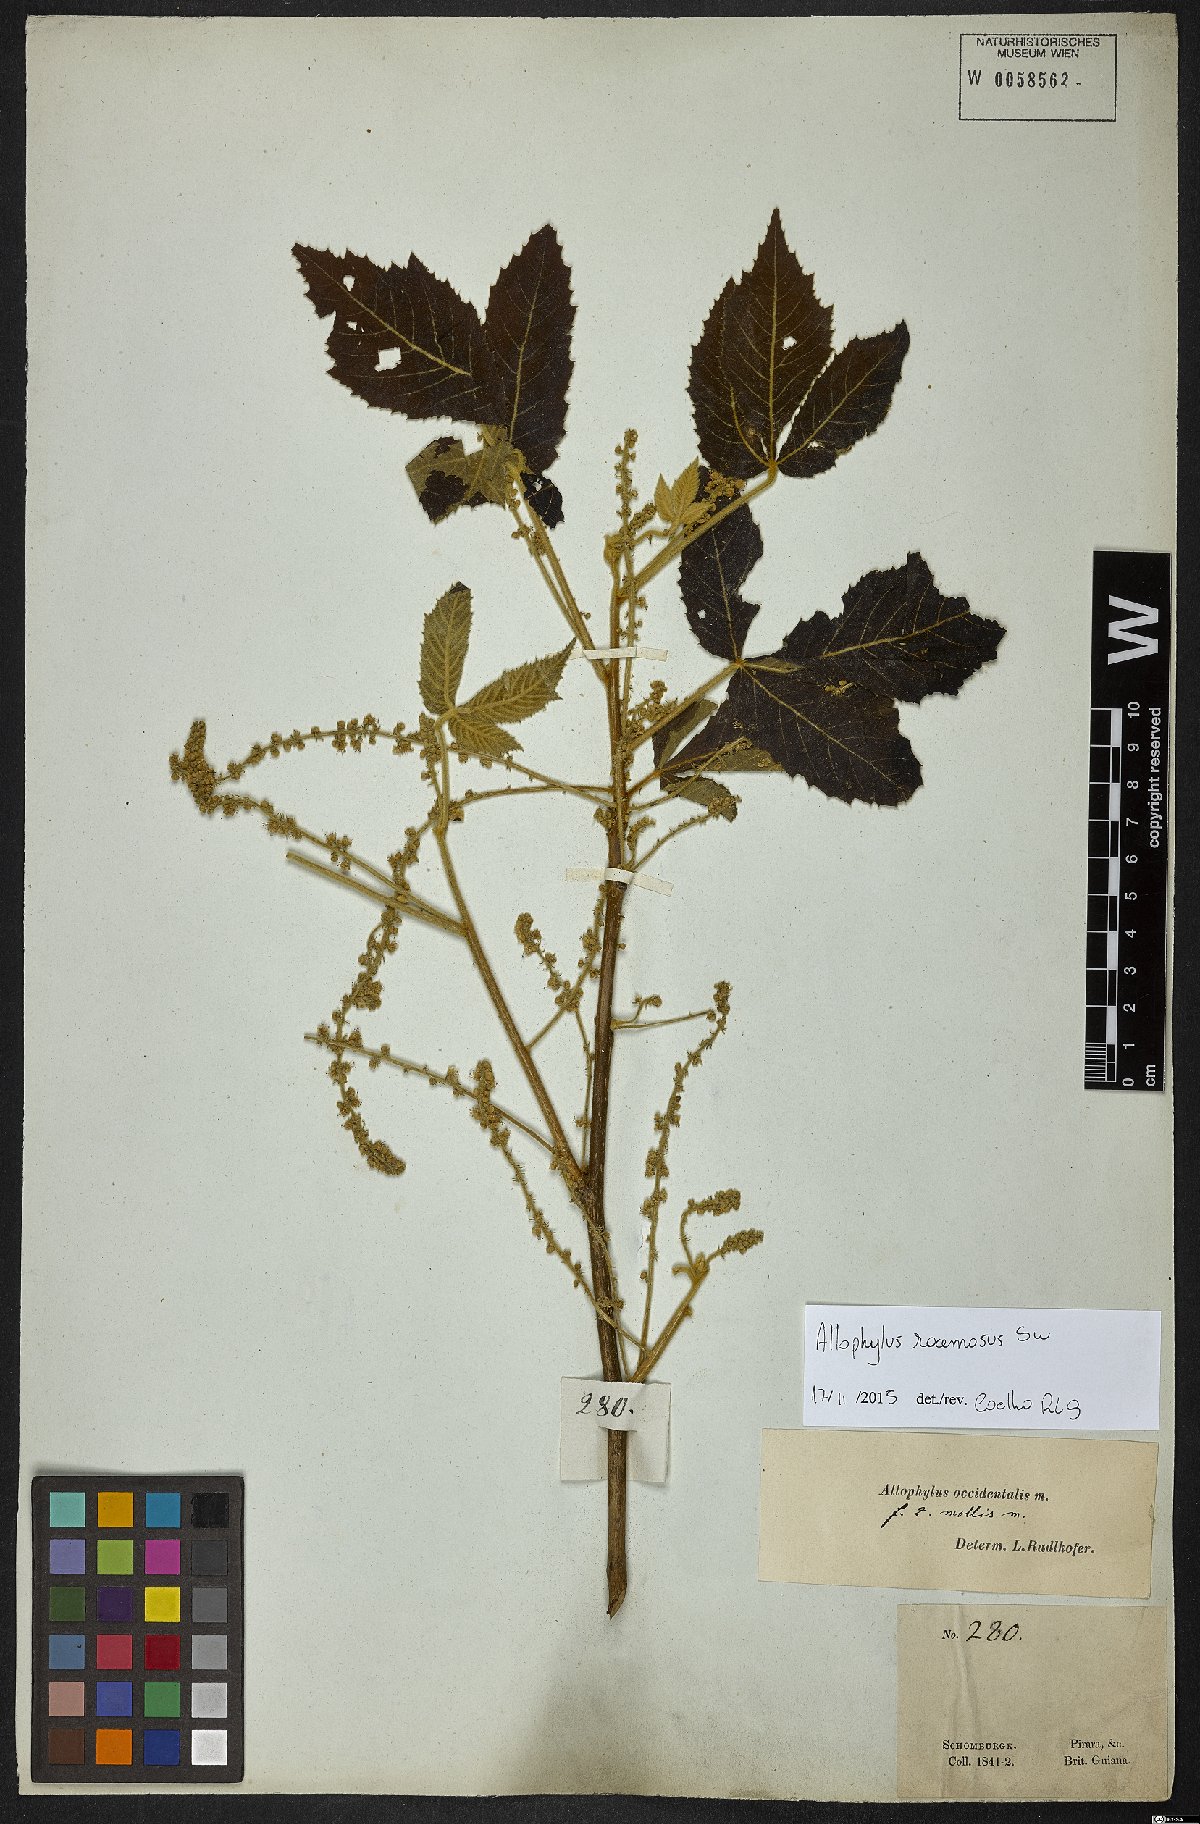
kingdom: Plantae
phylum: Tracheophyta
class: Magnoliopsida
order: Sapindales
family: Sapindaceae
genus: Allophylus
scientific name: Allophylus racemosus
